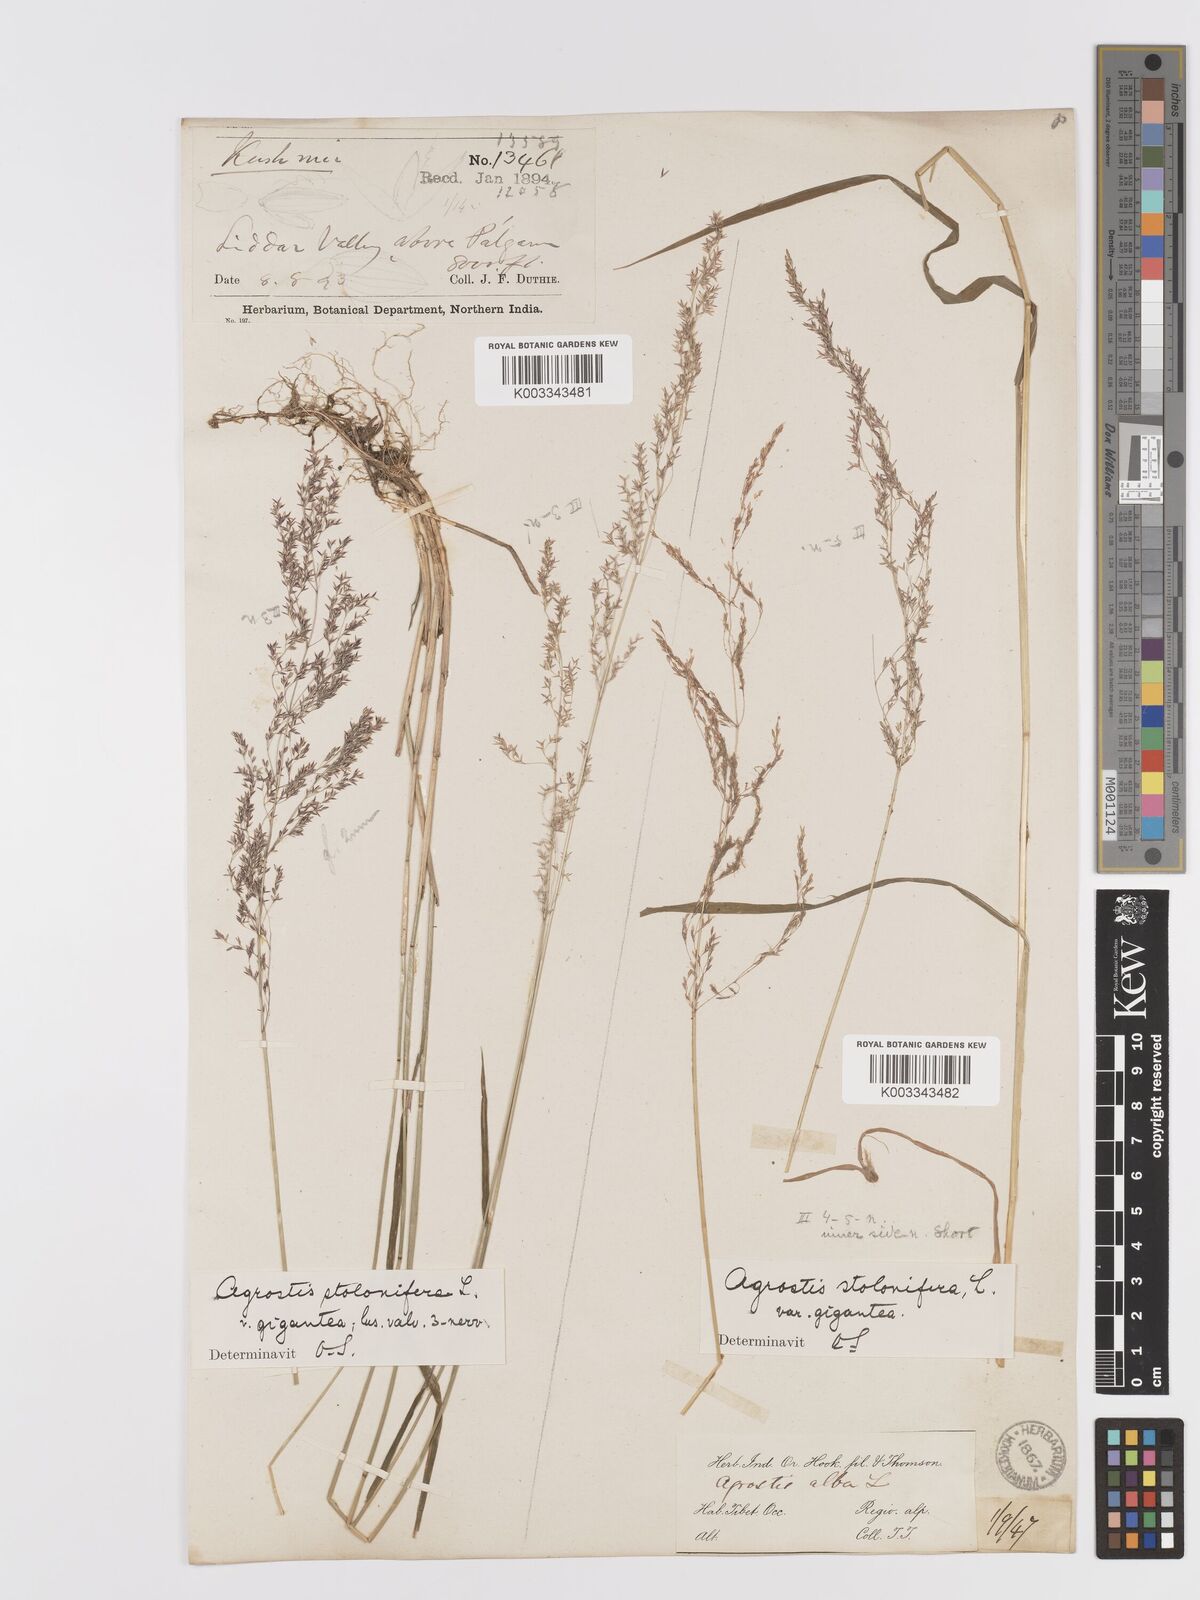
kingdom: Plantae
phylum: Tracheophyta
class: Liliopsida
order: Poales
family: Poaceae
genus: Agrostis
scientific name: Agrostis gigantea
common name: Black bent
